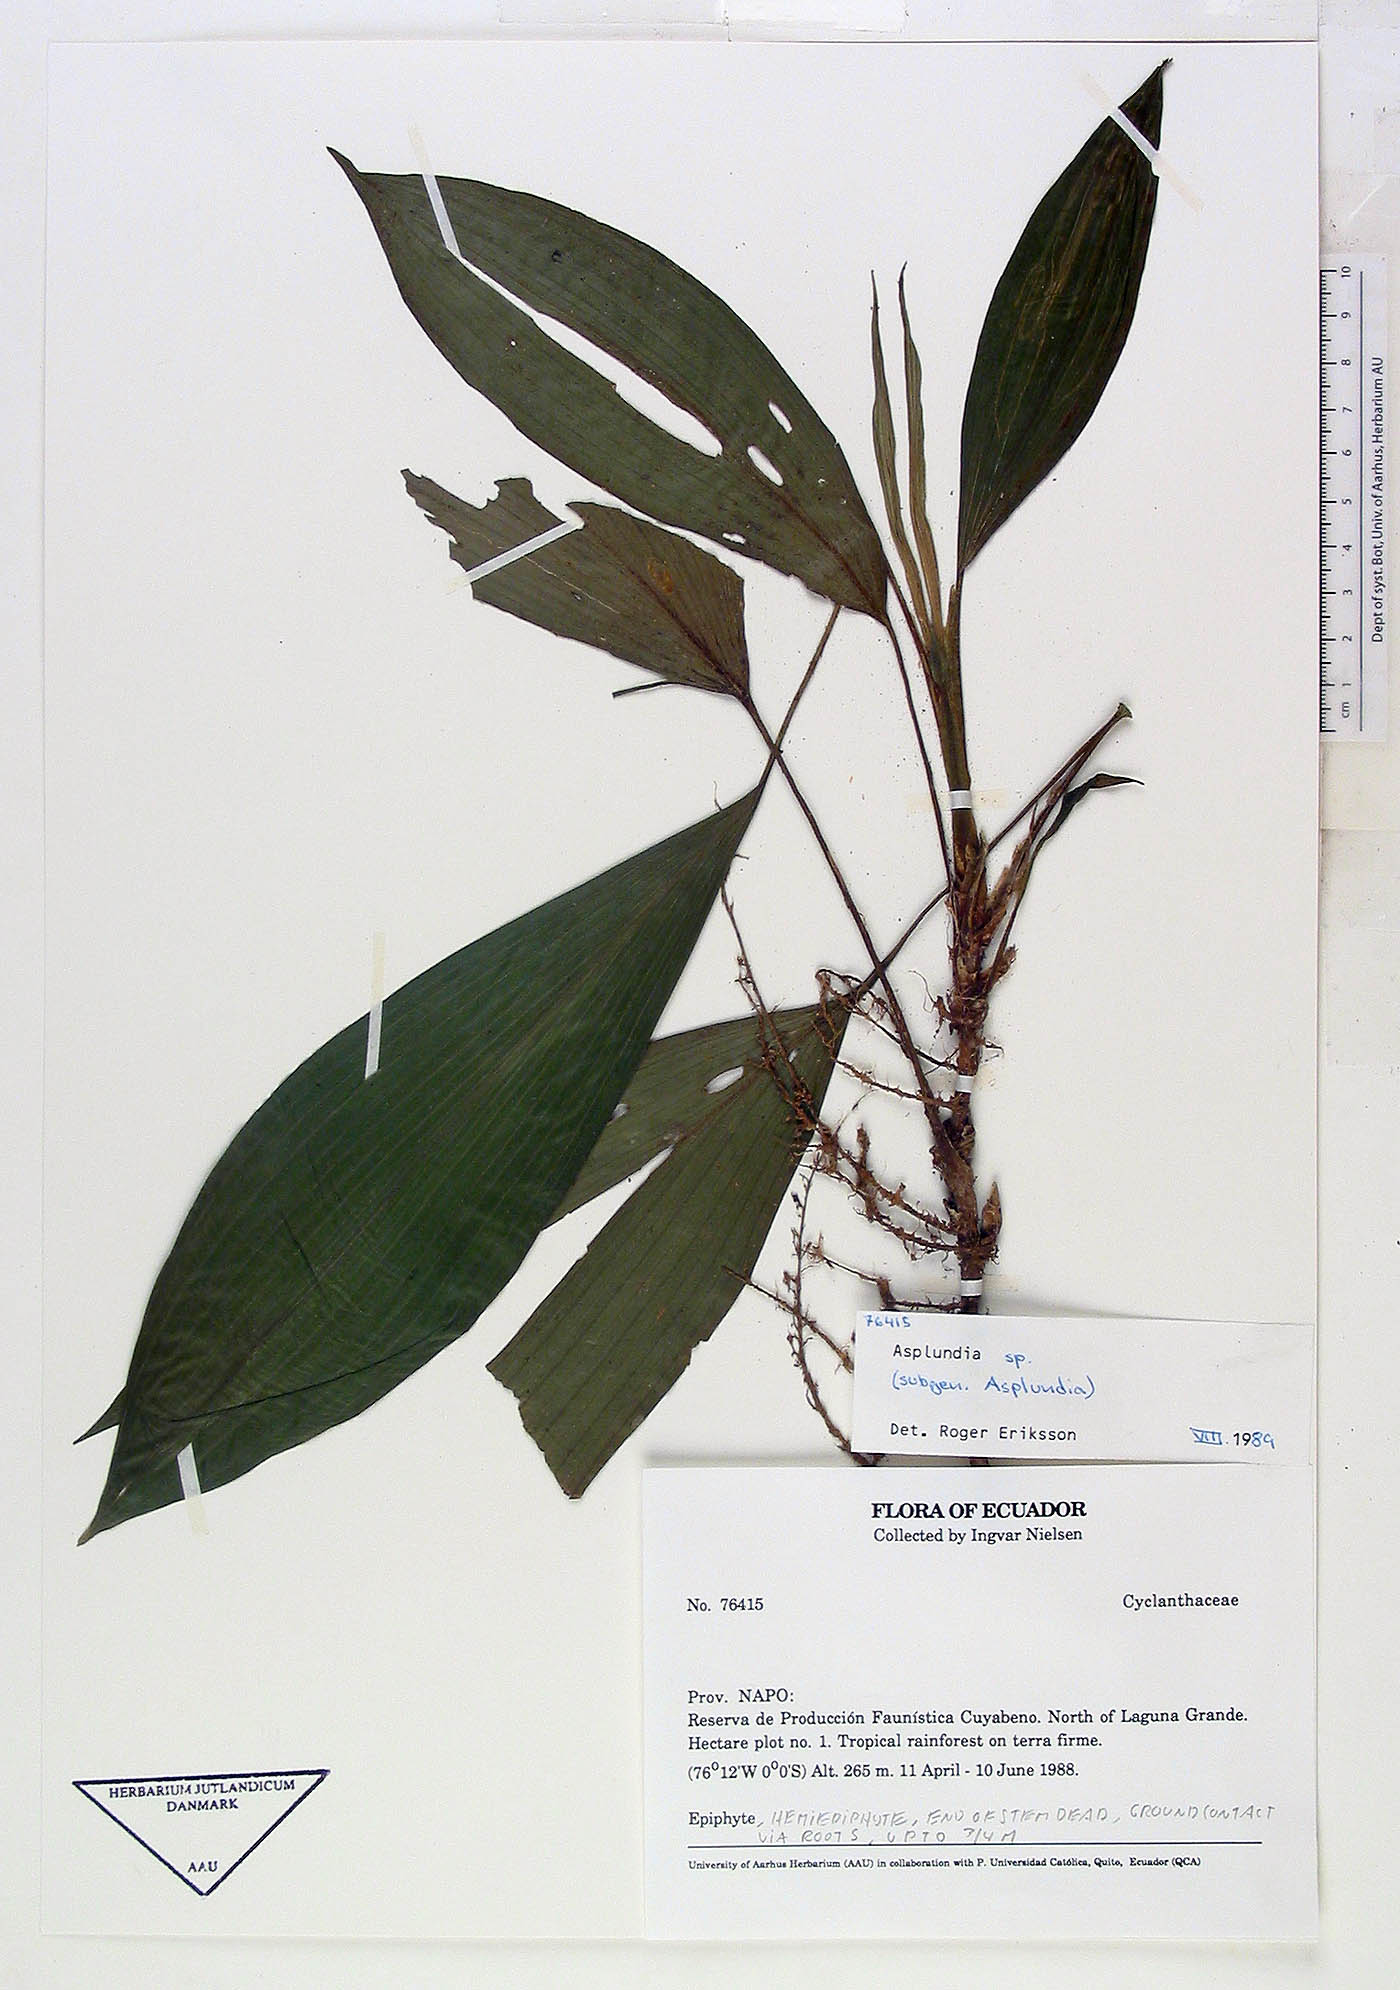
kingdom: Plantae
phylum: Tracheophyta
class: Liliopsida
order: Pandanales
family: Cyclanthaceae
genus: Asplundia
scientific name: Asplundia
